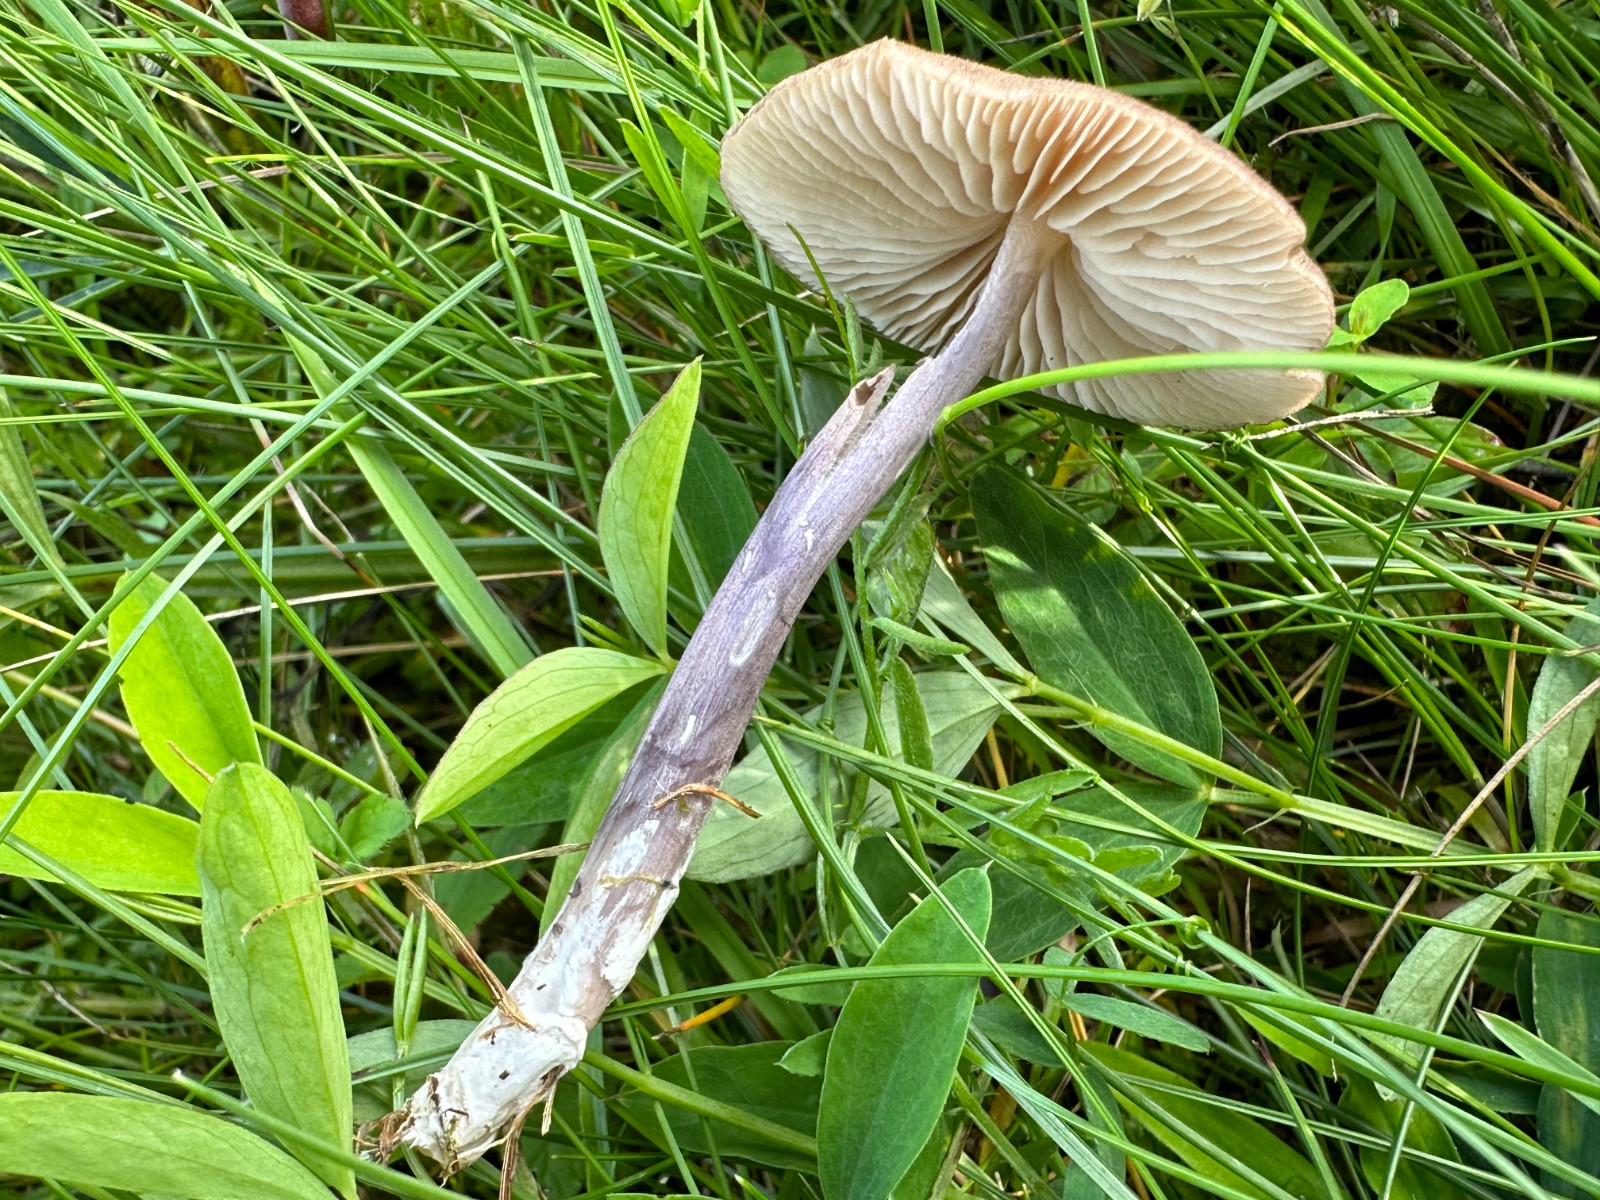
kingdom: Fungi
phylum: Basidiomycota
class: Agaricomycetes
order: Agaricales
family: Entolomataceae
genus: Entoloma
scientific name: Entoloma griseocyaneum
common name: gråblå rødblad
